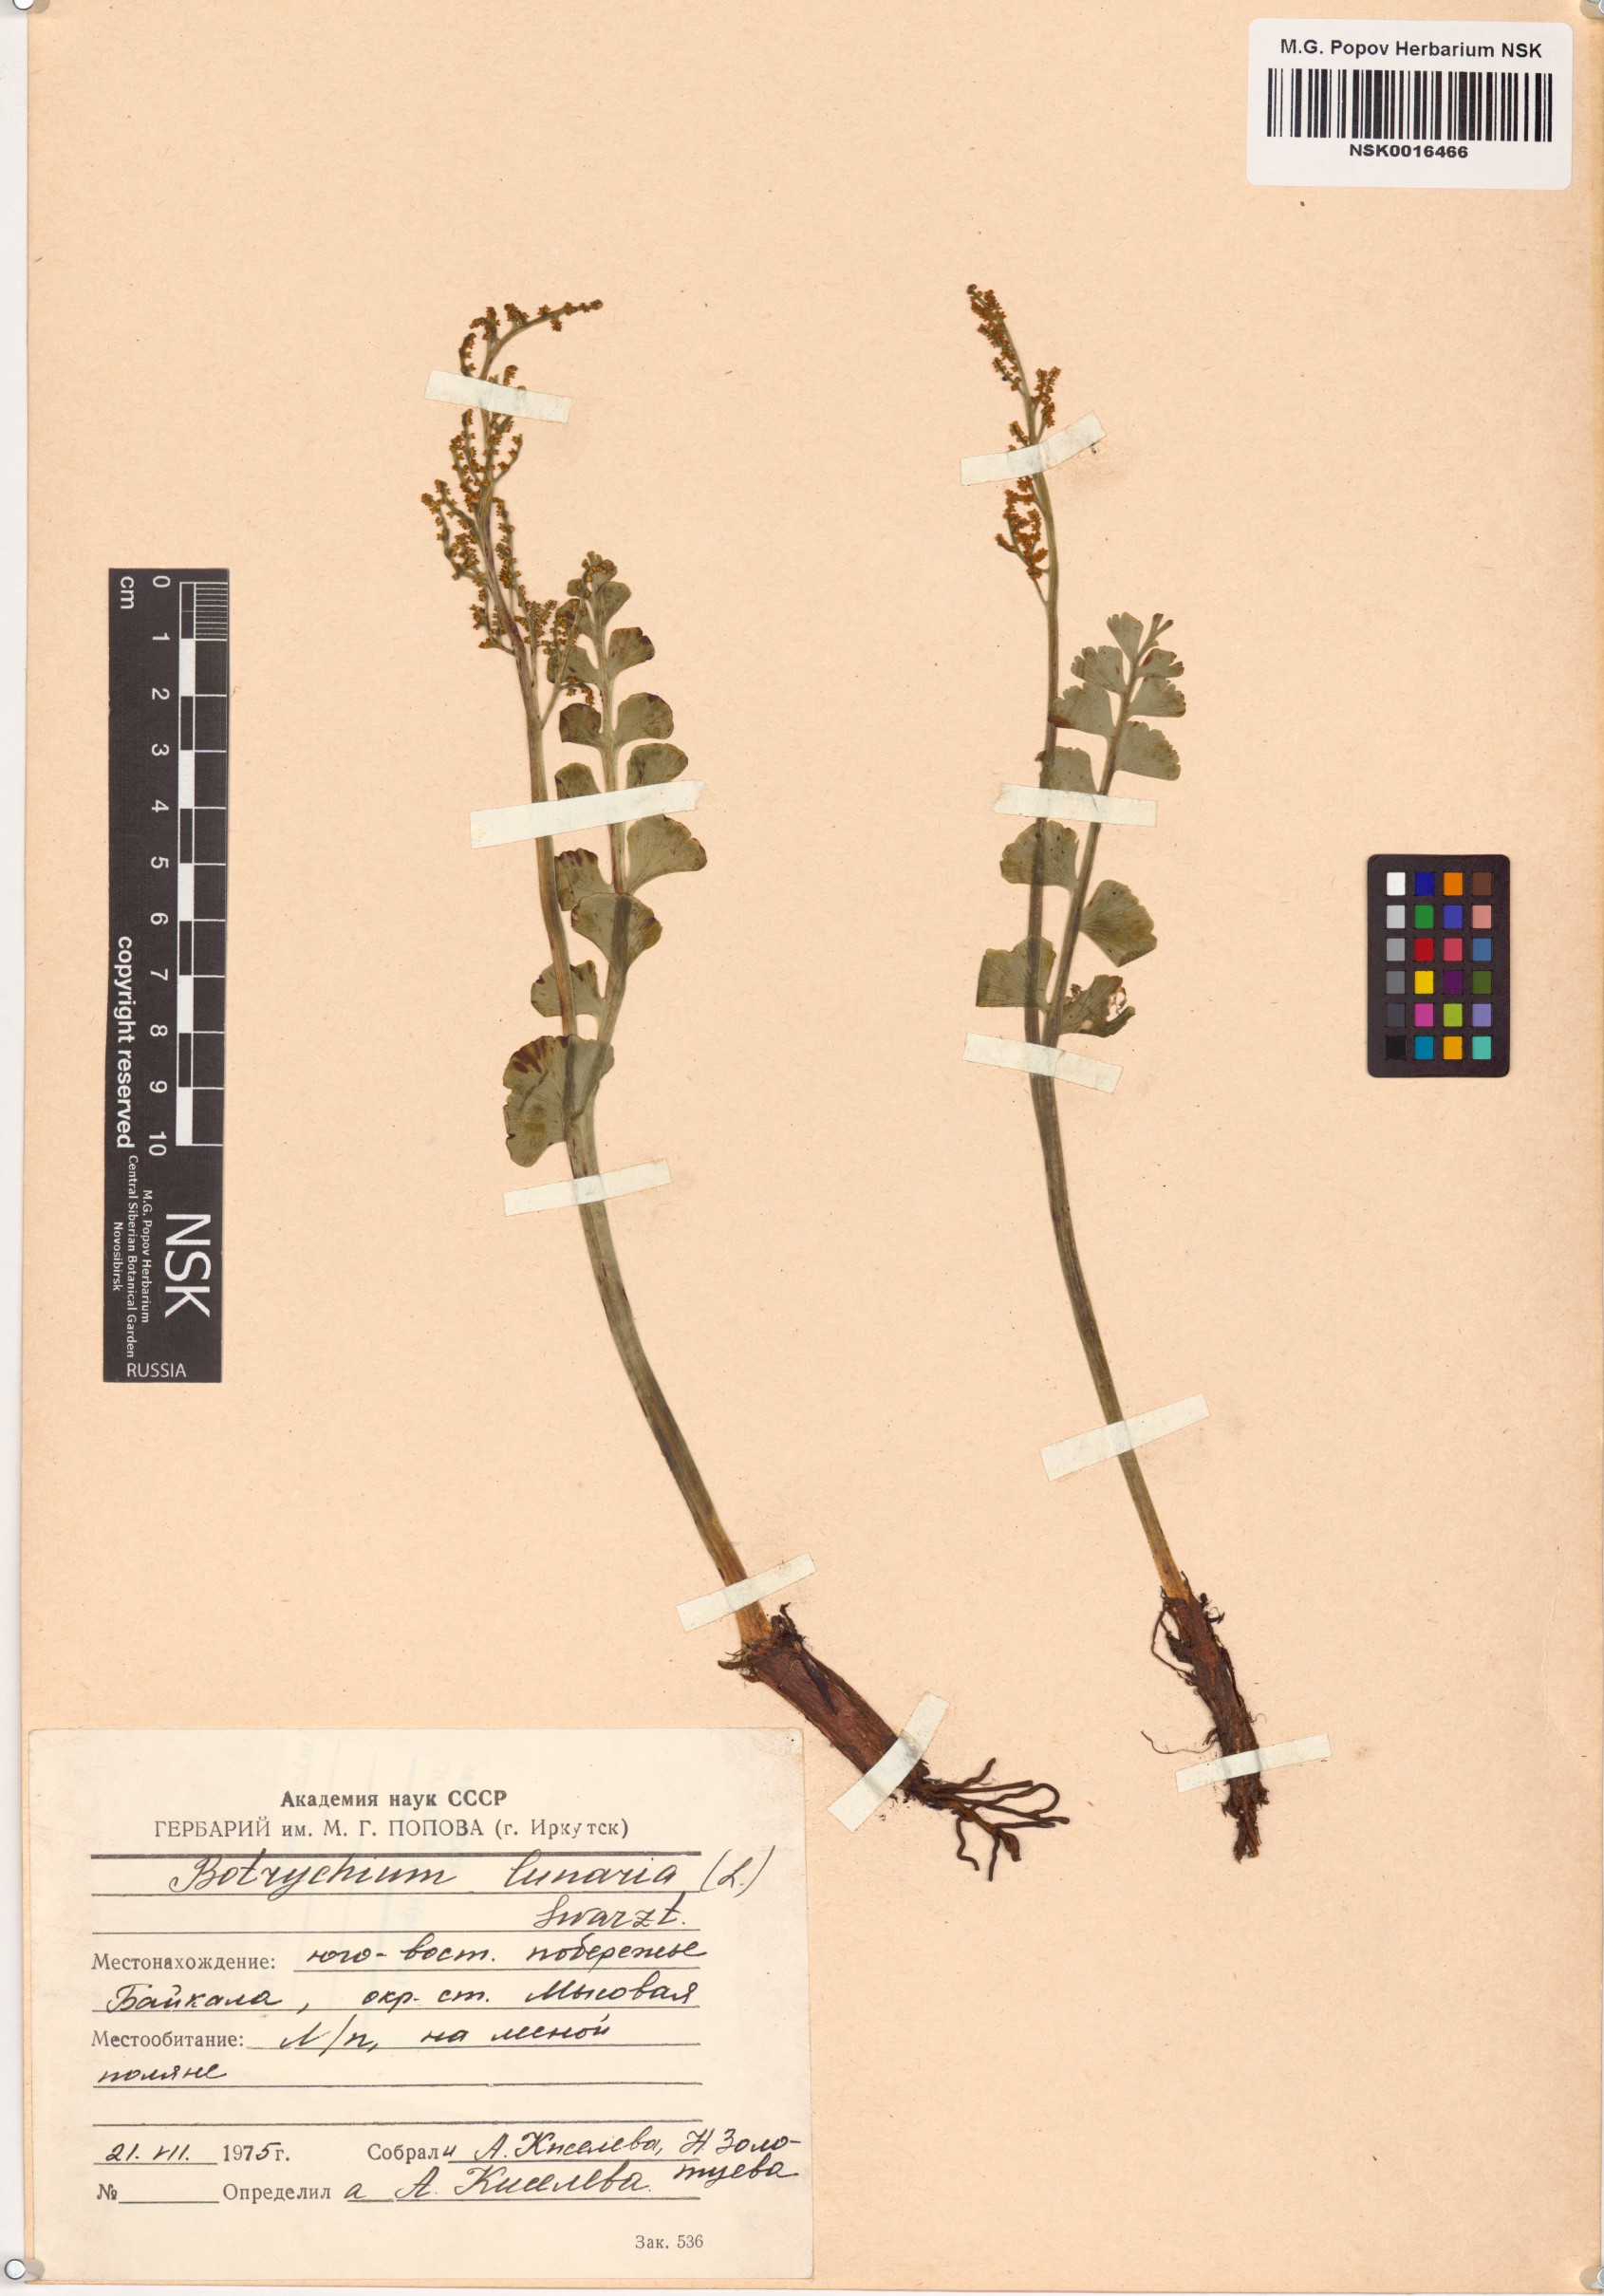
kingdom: Plantae
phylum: Tracheophyta
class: Polypodiopsida
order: Ophioglossales
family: Ophioglossaceae
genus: Botrychium
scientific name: Botrychium lunaria
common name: Moonwort
